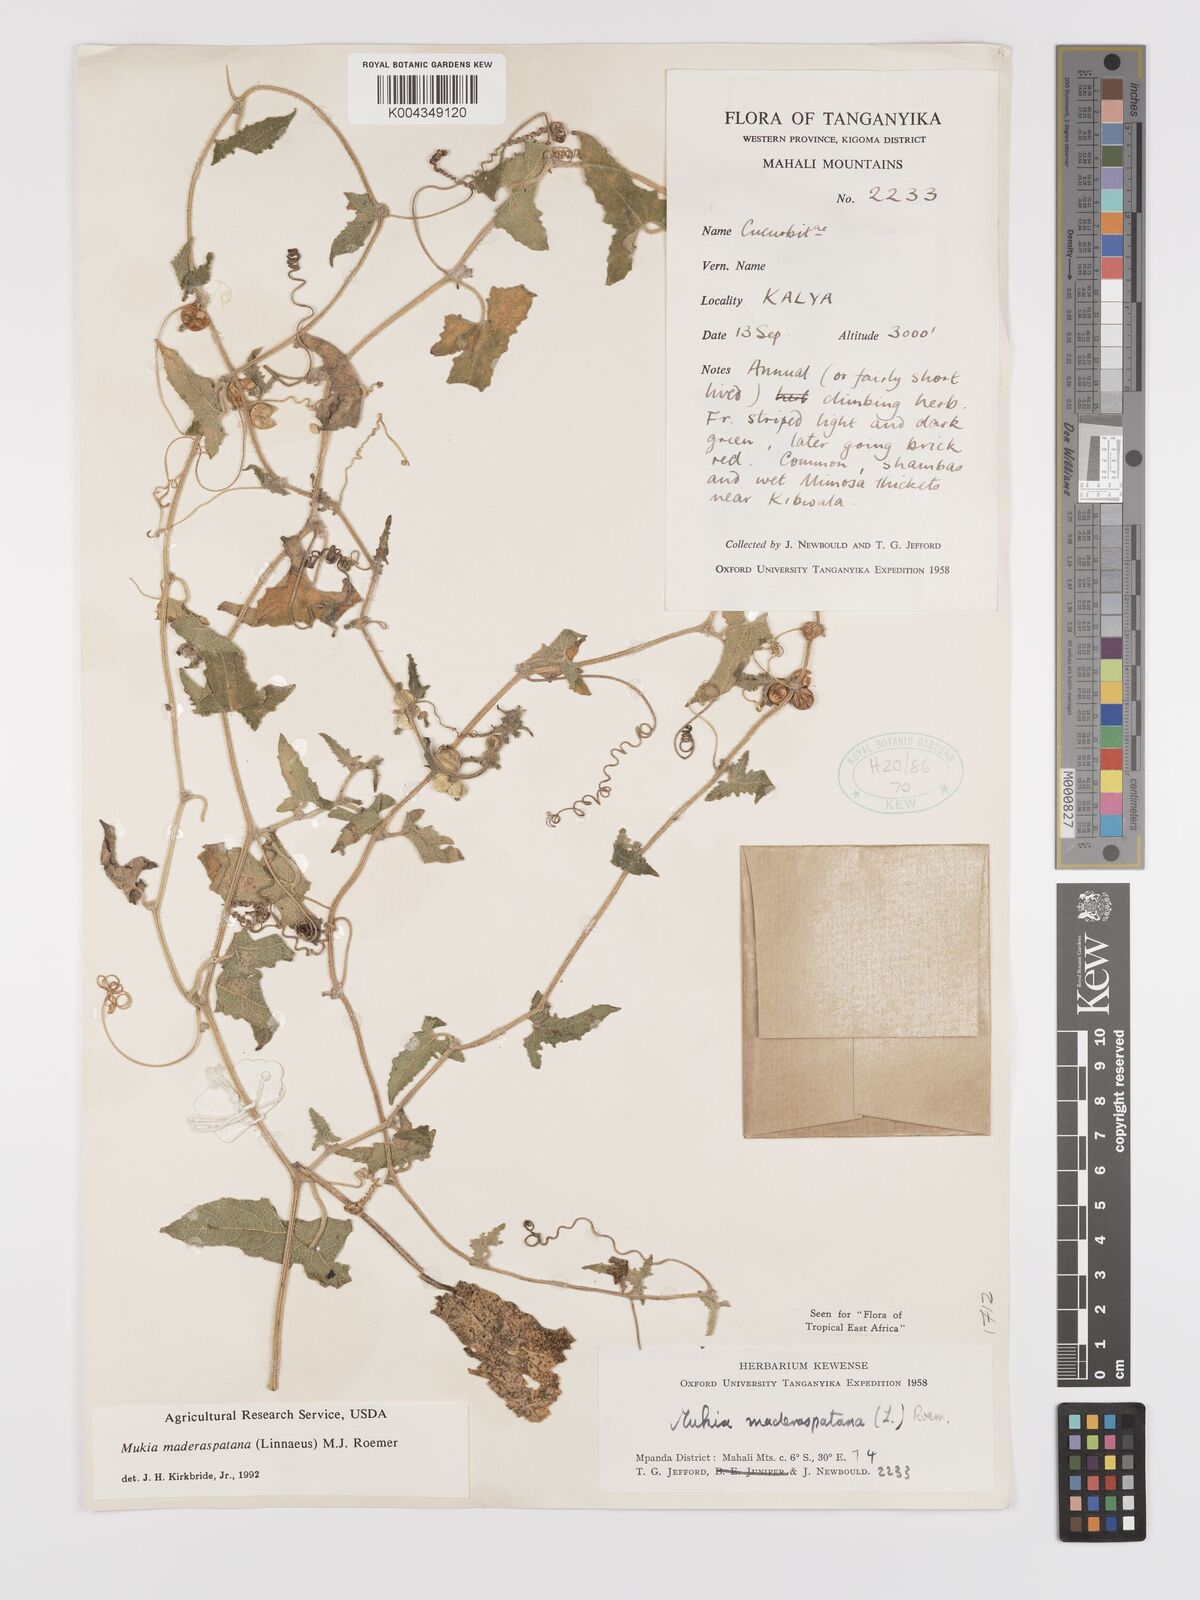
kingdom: Plantae
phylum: Tracheophyta
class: Magnoliopsida
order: Cucurbitales
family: Cucurbitaceae
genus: Cucumis
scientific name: Cucumis maderaspatanus
